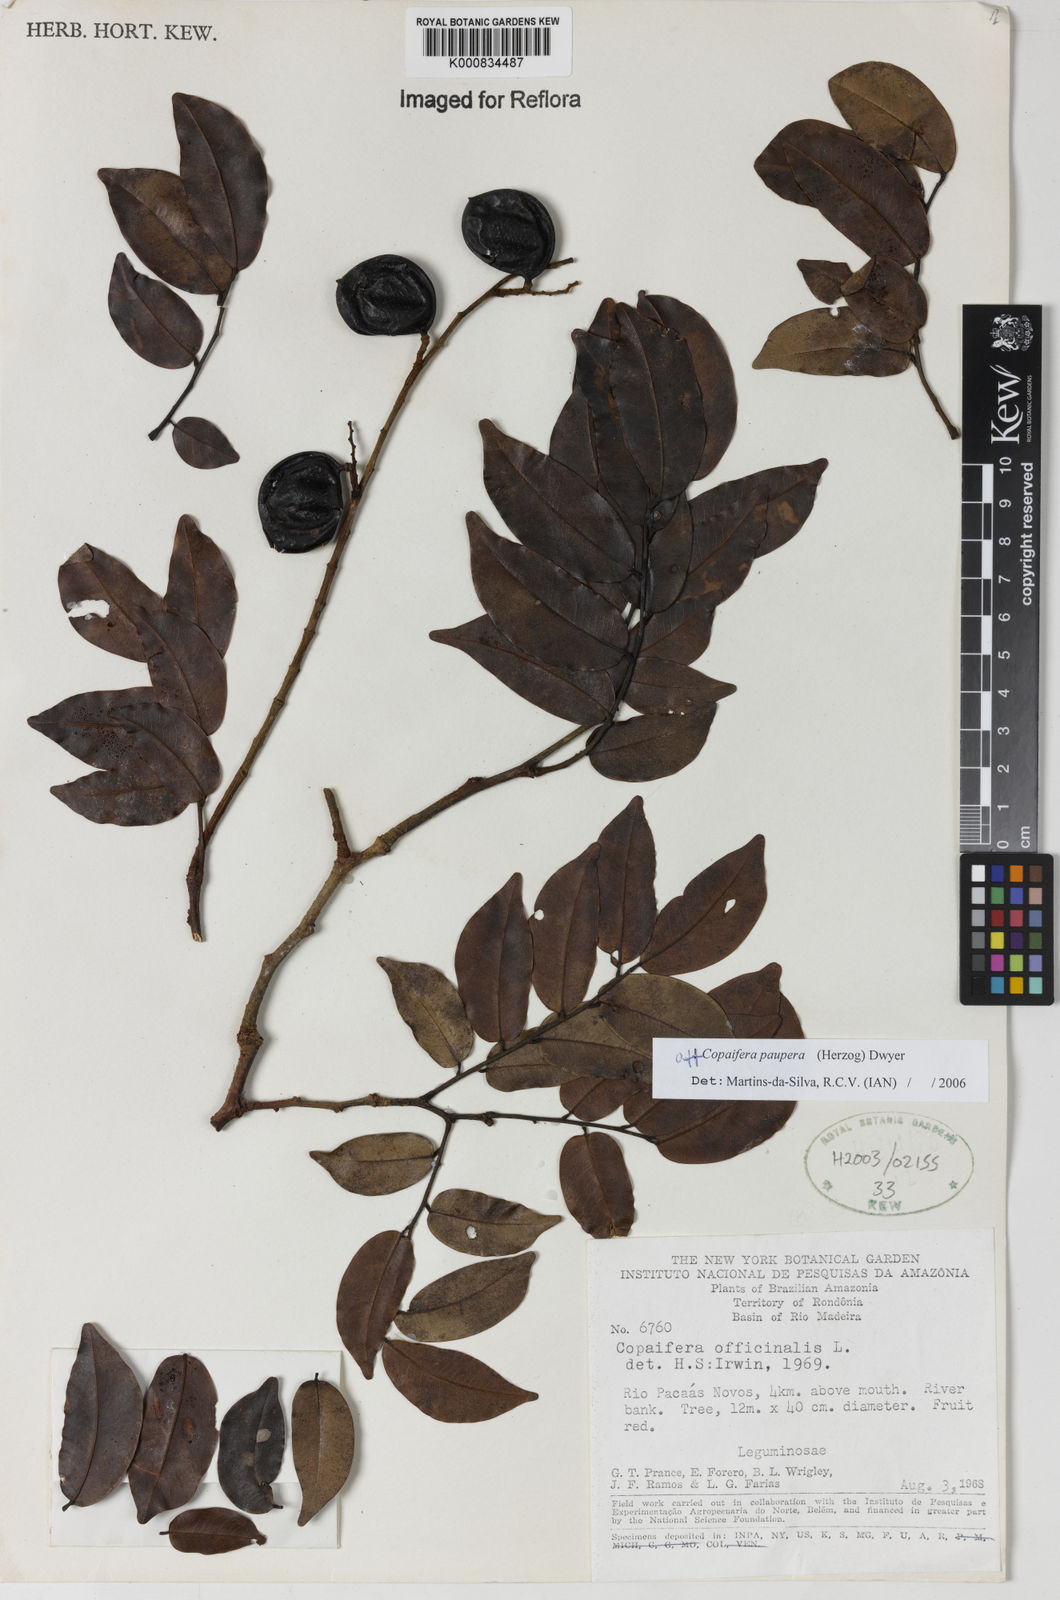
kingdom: Plantae
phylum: Tracheophyta
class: Magnoliopsida
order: Fabales
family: Fabaceae
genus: Copaifera
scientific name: Copaifera paupera
